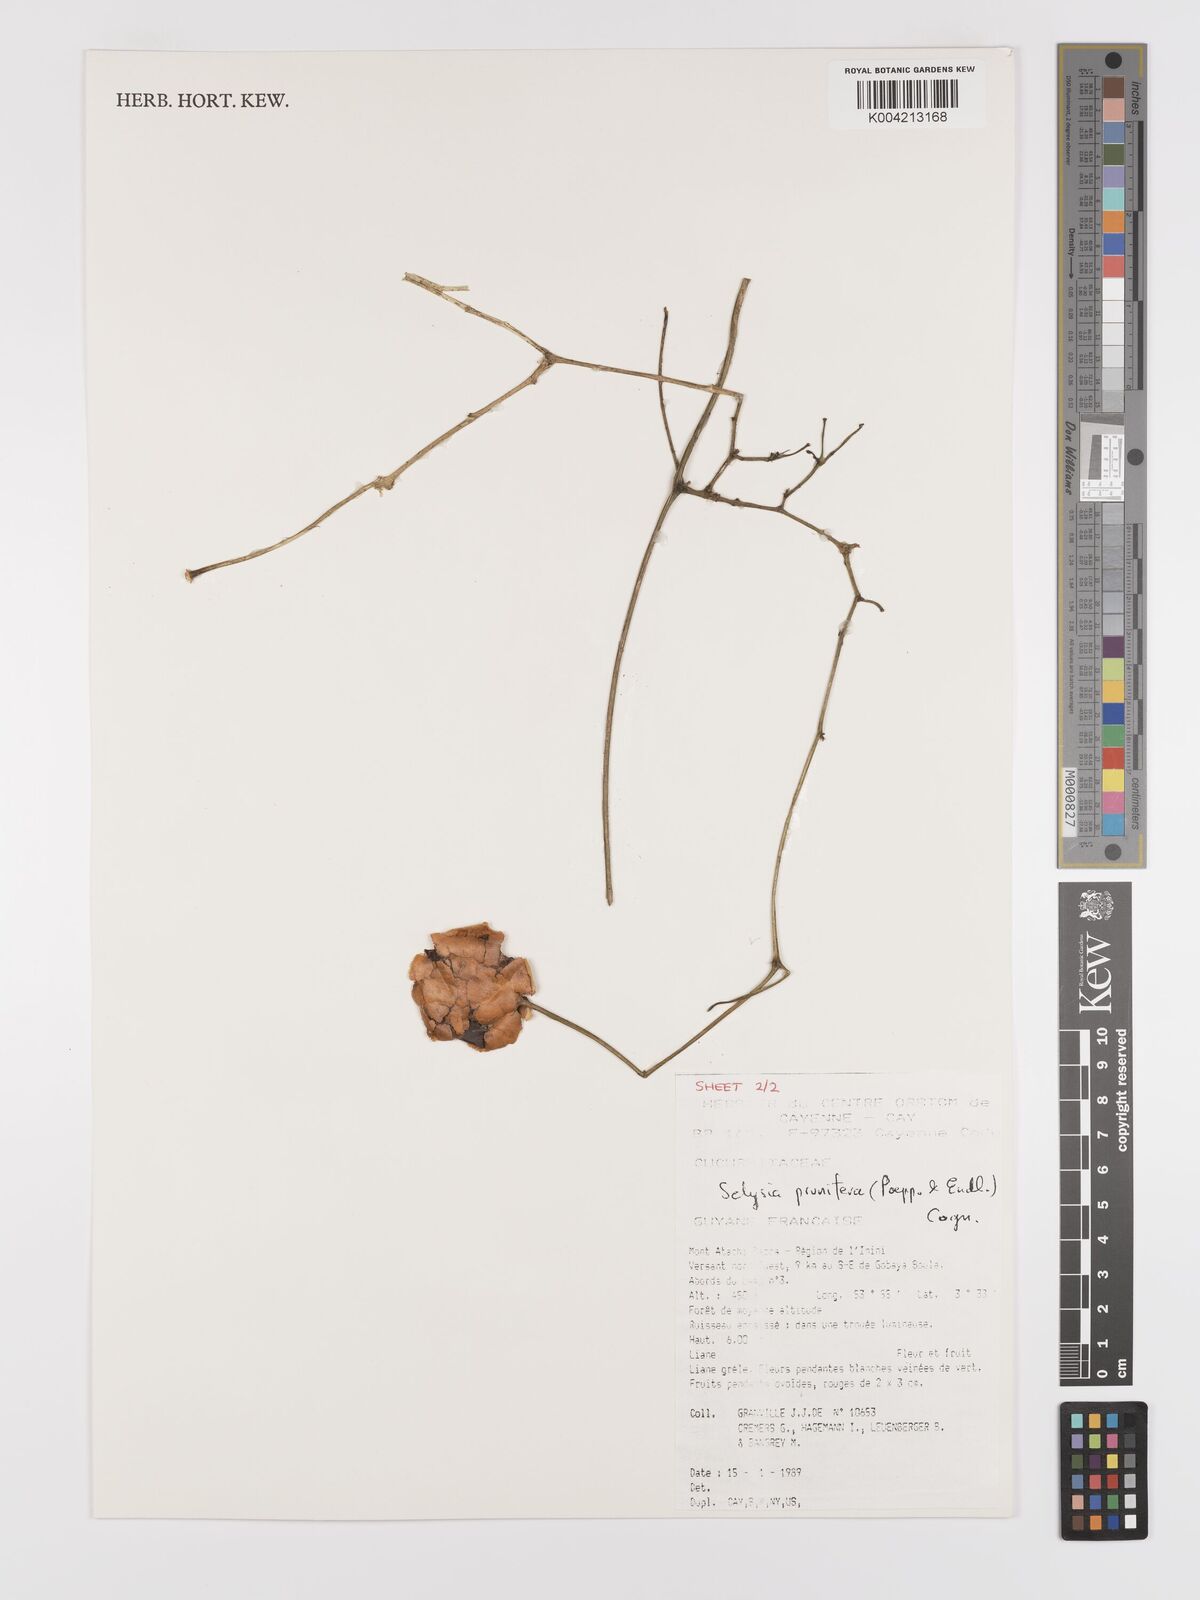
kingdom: Plantae
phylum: Tracheophyta
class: Magnoliopsida
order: Cucurbitales
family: Cucurbitaceae
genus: Cayaponia
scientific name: Cayaponia prunifera
